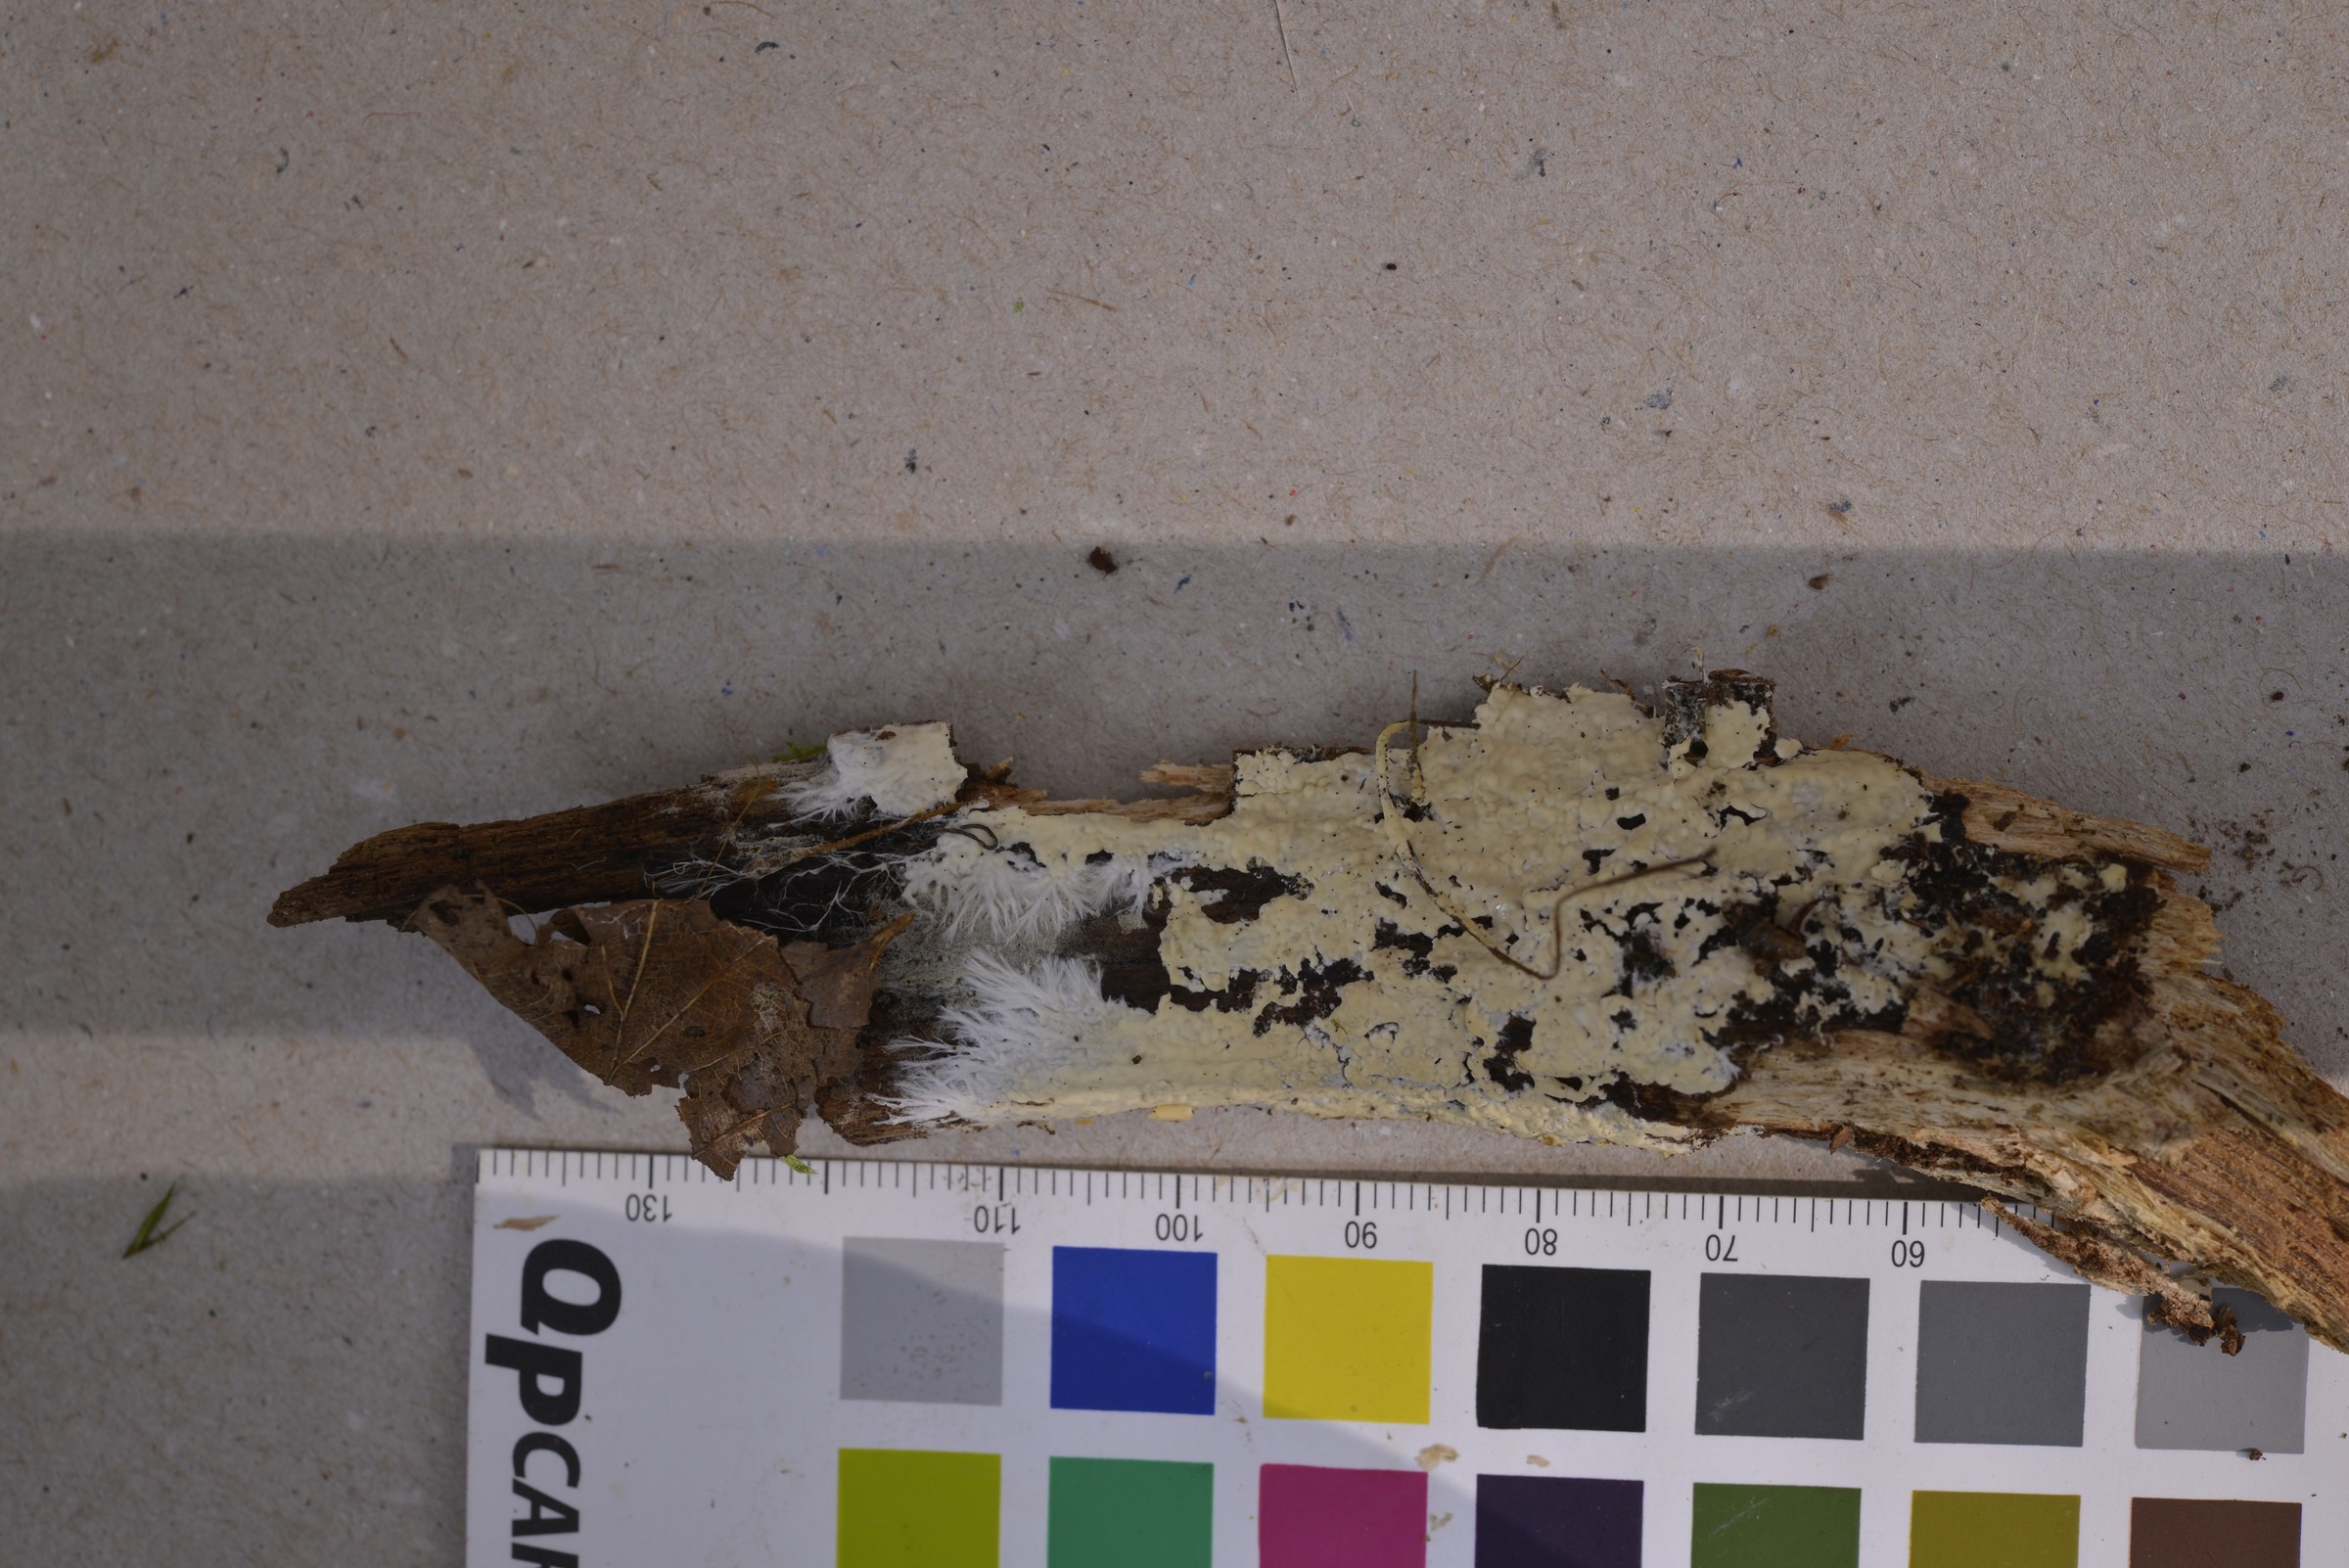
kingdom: Fungi
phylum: Basidiomycota
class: Agaricomycetes
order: Russulales
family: Peniophoraceae
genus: Gloiothele
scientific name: Gloiothele citrina
